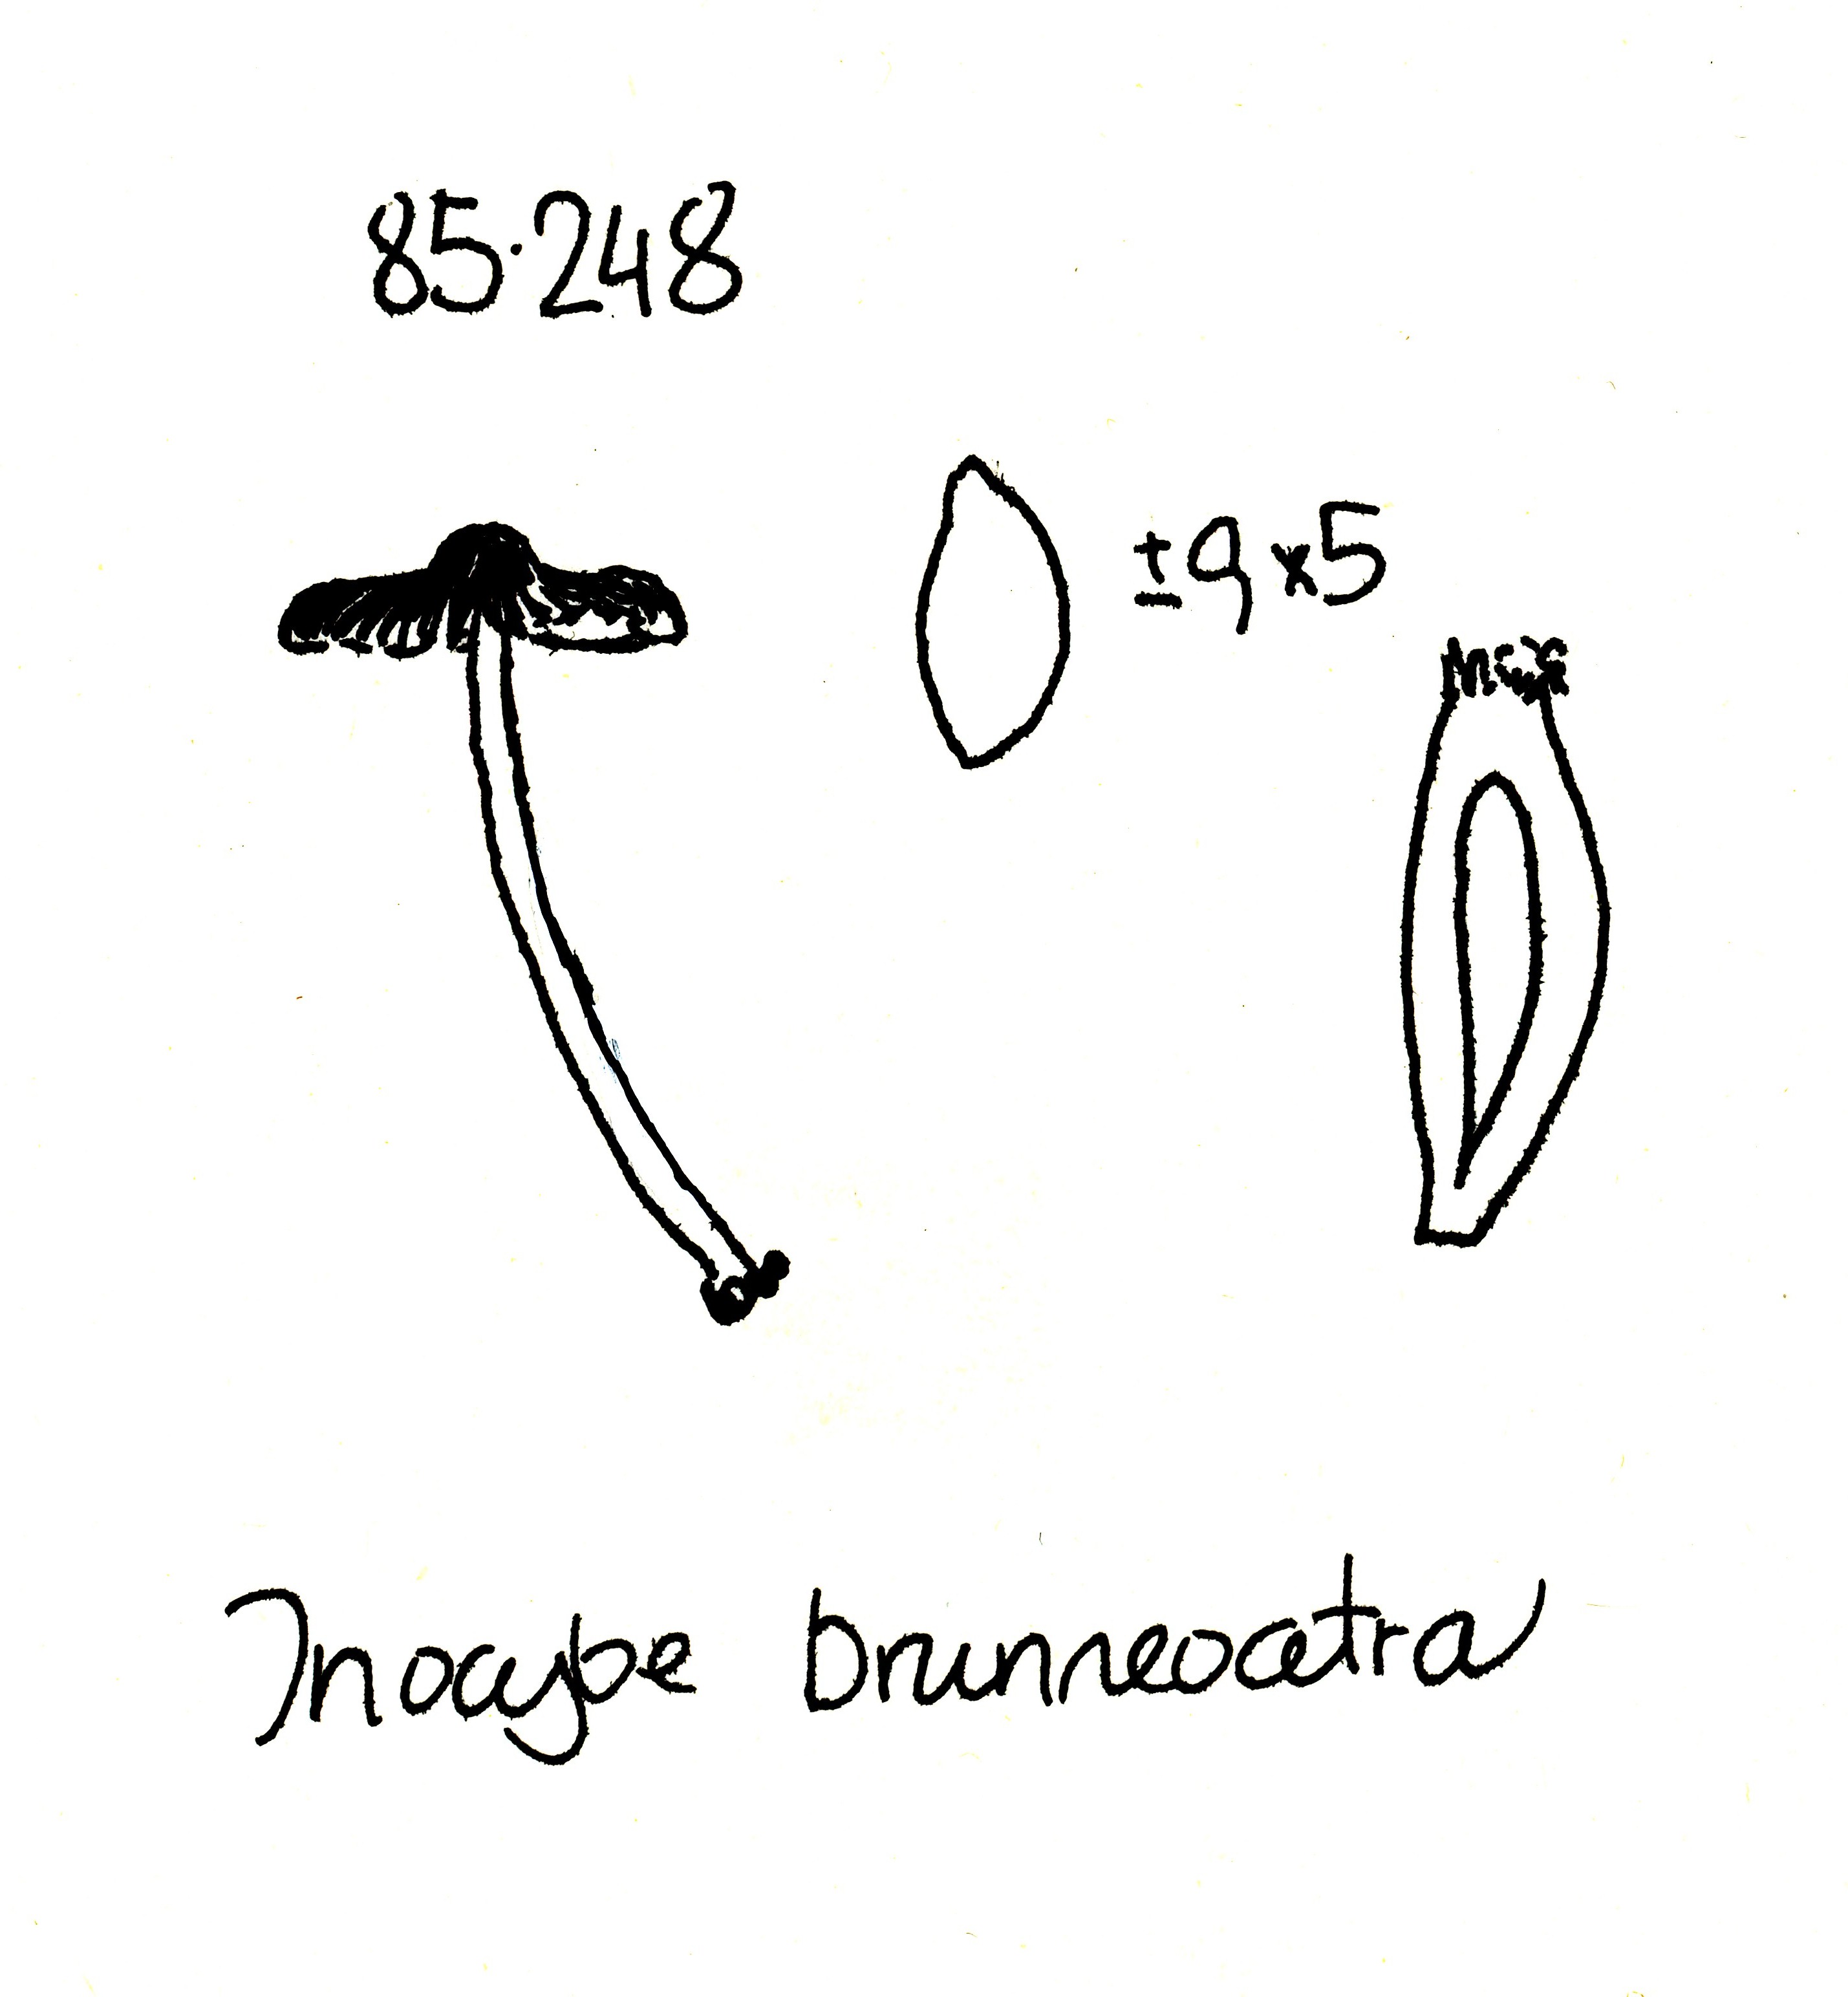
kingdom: Fungi
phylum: Basidiomycota
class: Agaricomycetes
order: Agaricales
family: Inocybaceae
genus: Inocybe
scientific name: Inocybe
